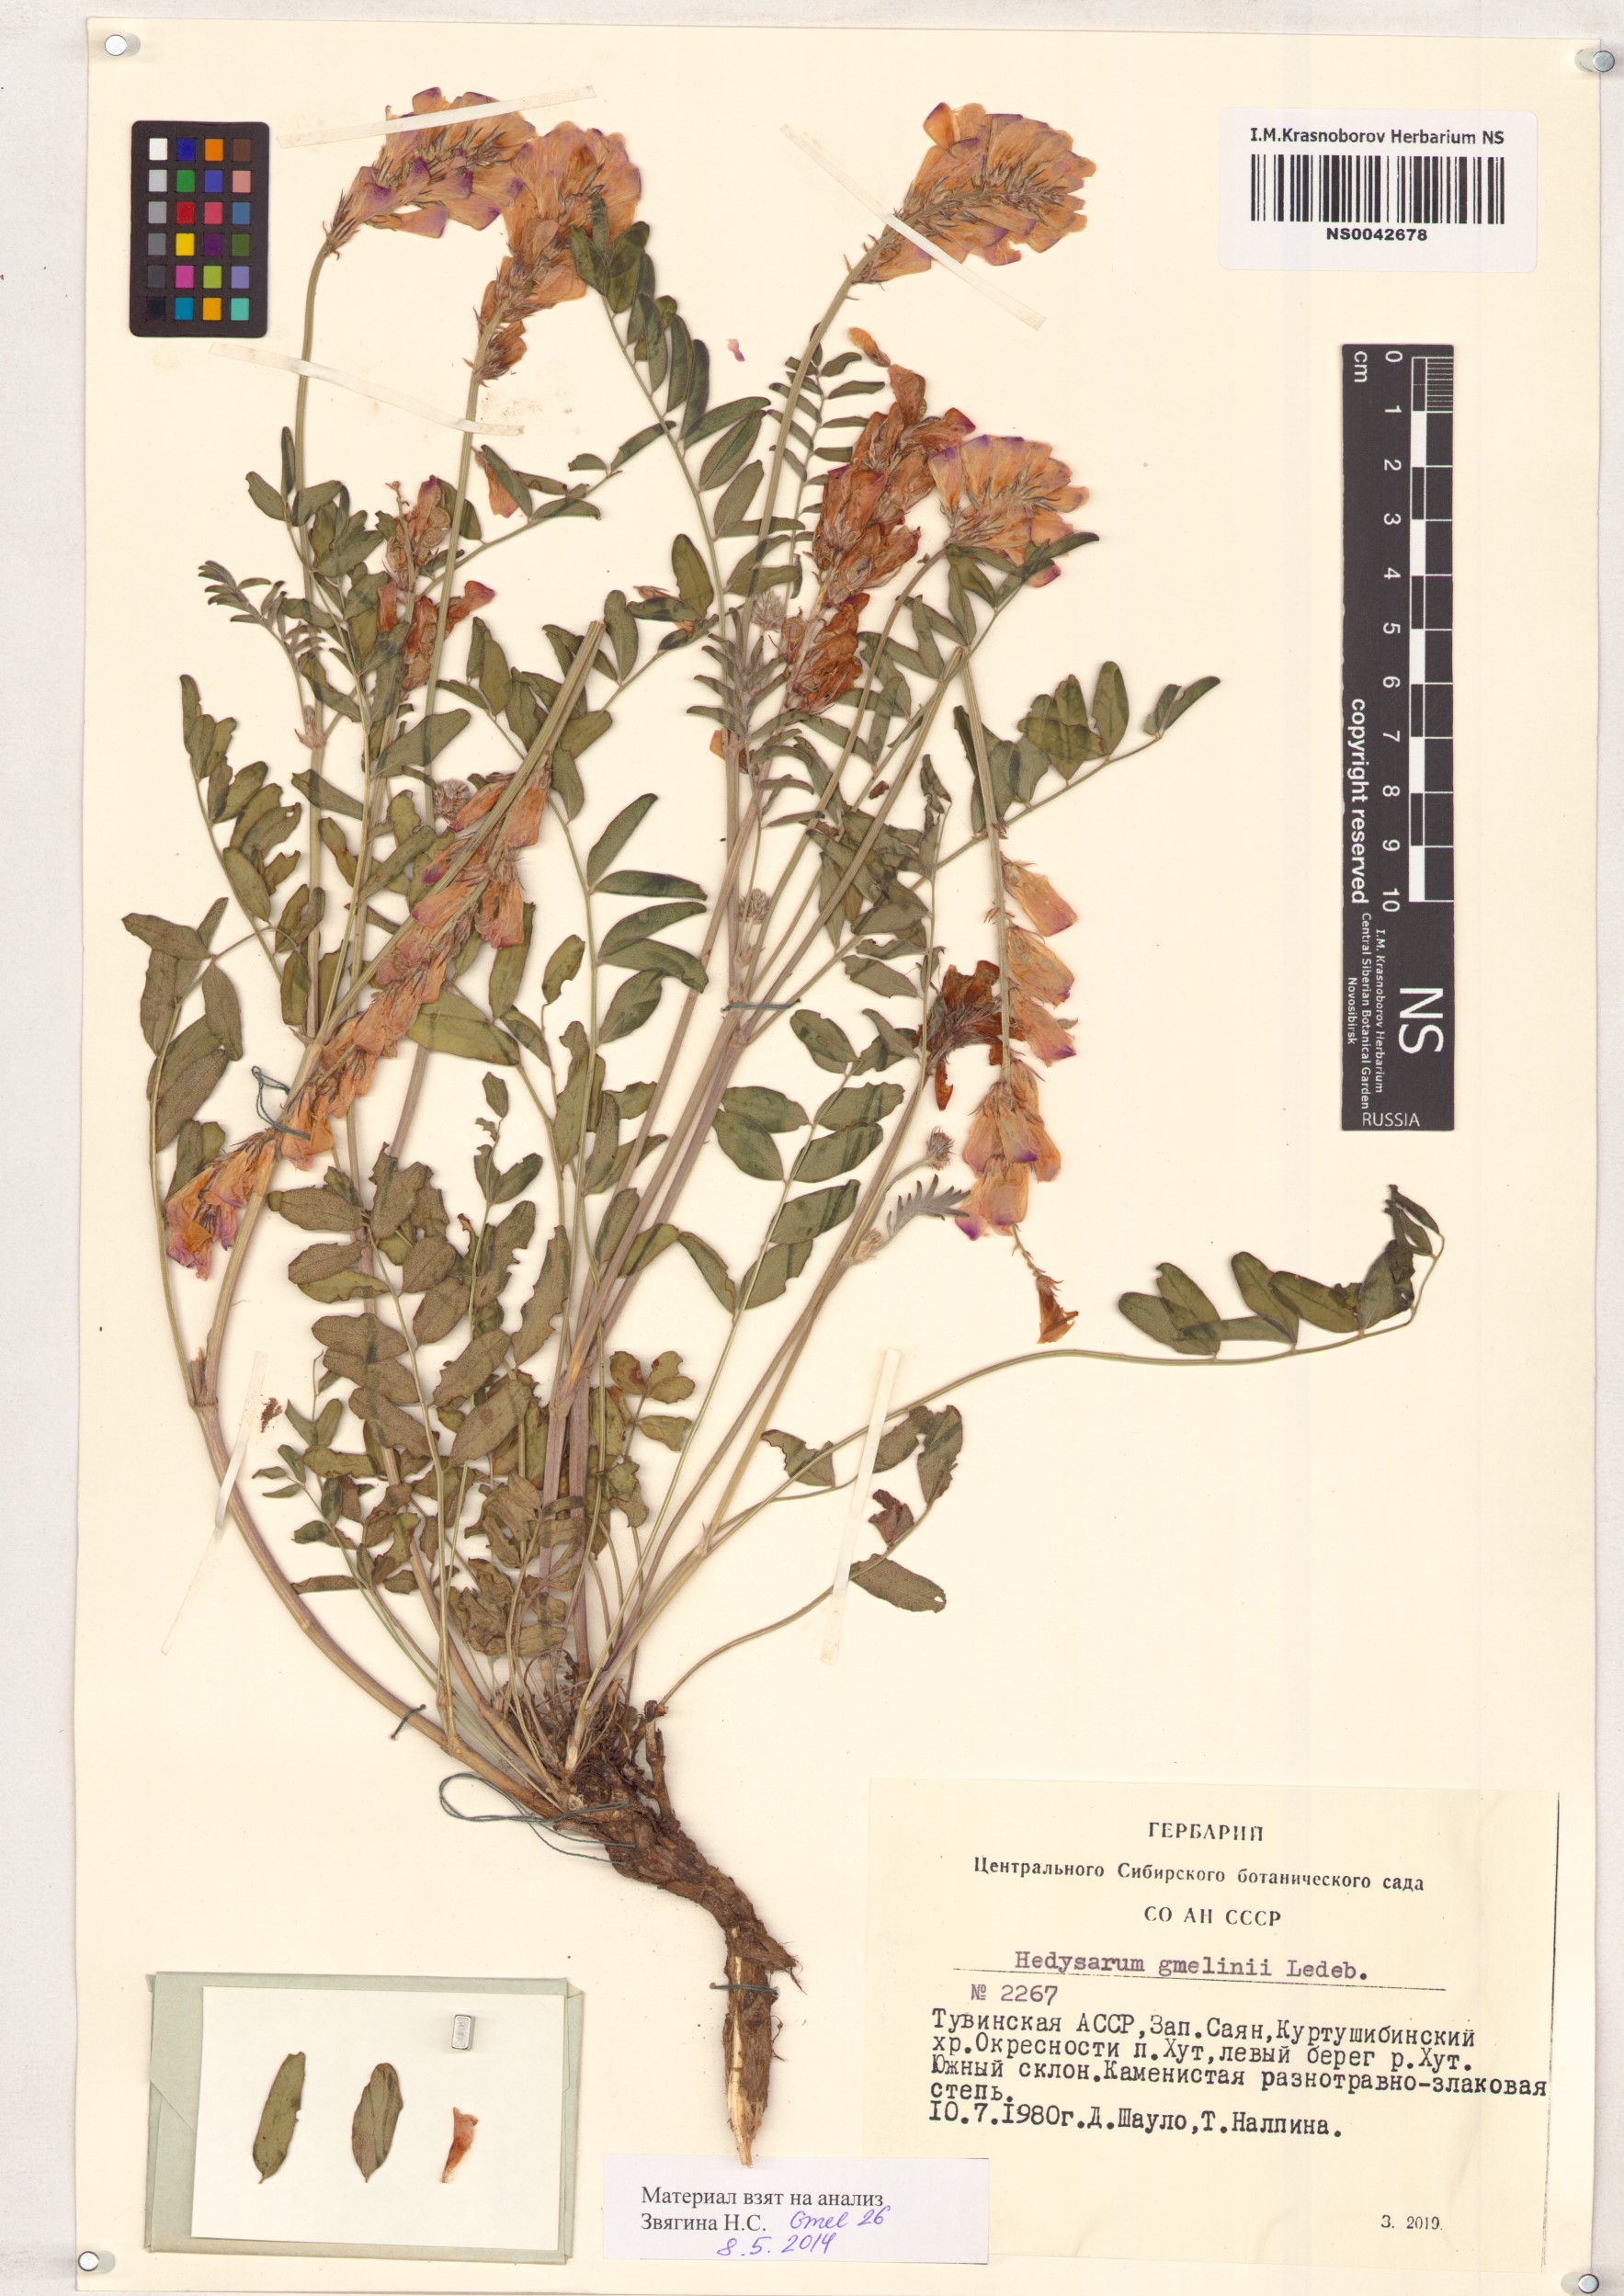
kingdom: Plantae
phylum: Tracheophyta
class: Magnoliopsida
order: Fabales
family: Fabaceae
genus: Hedysarum
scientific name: Hedysarum gmelinii
